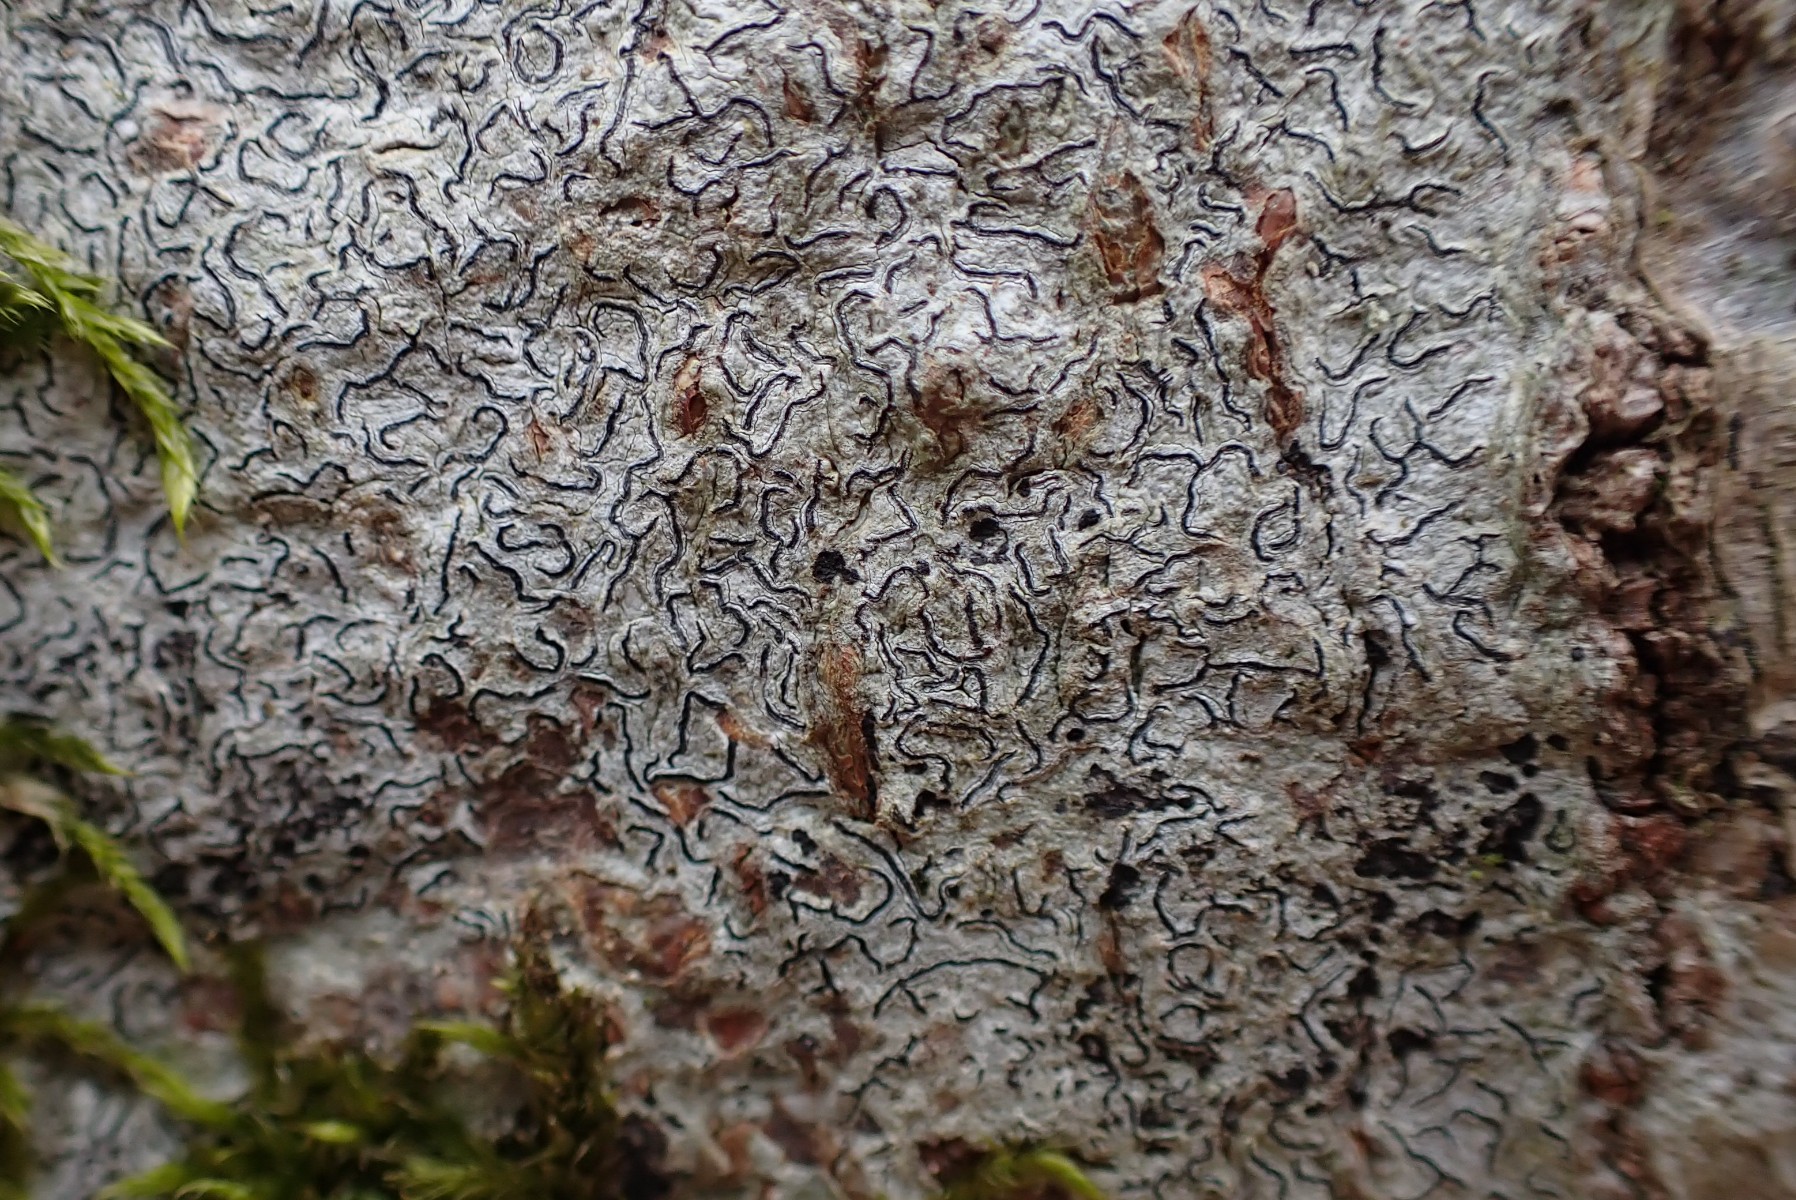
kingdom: Fungi
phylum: Ascomycota
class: Lecanoromycetes
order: Ostropales
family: Graphidaceae
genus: Graphis
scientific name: Graphis scripta
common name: almindelig skriftlav
